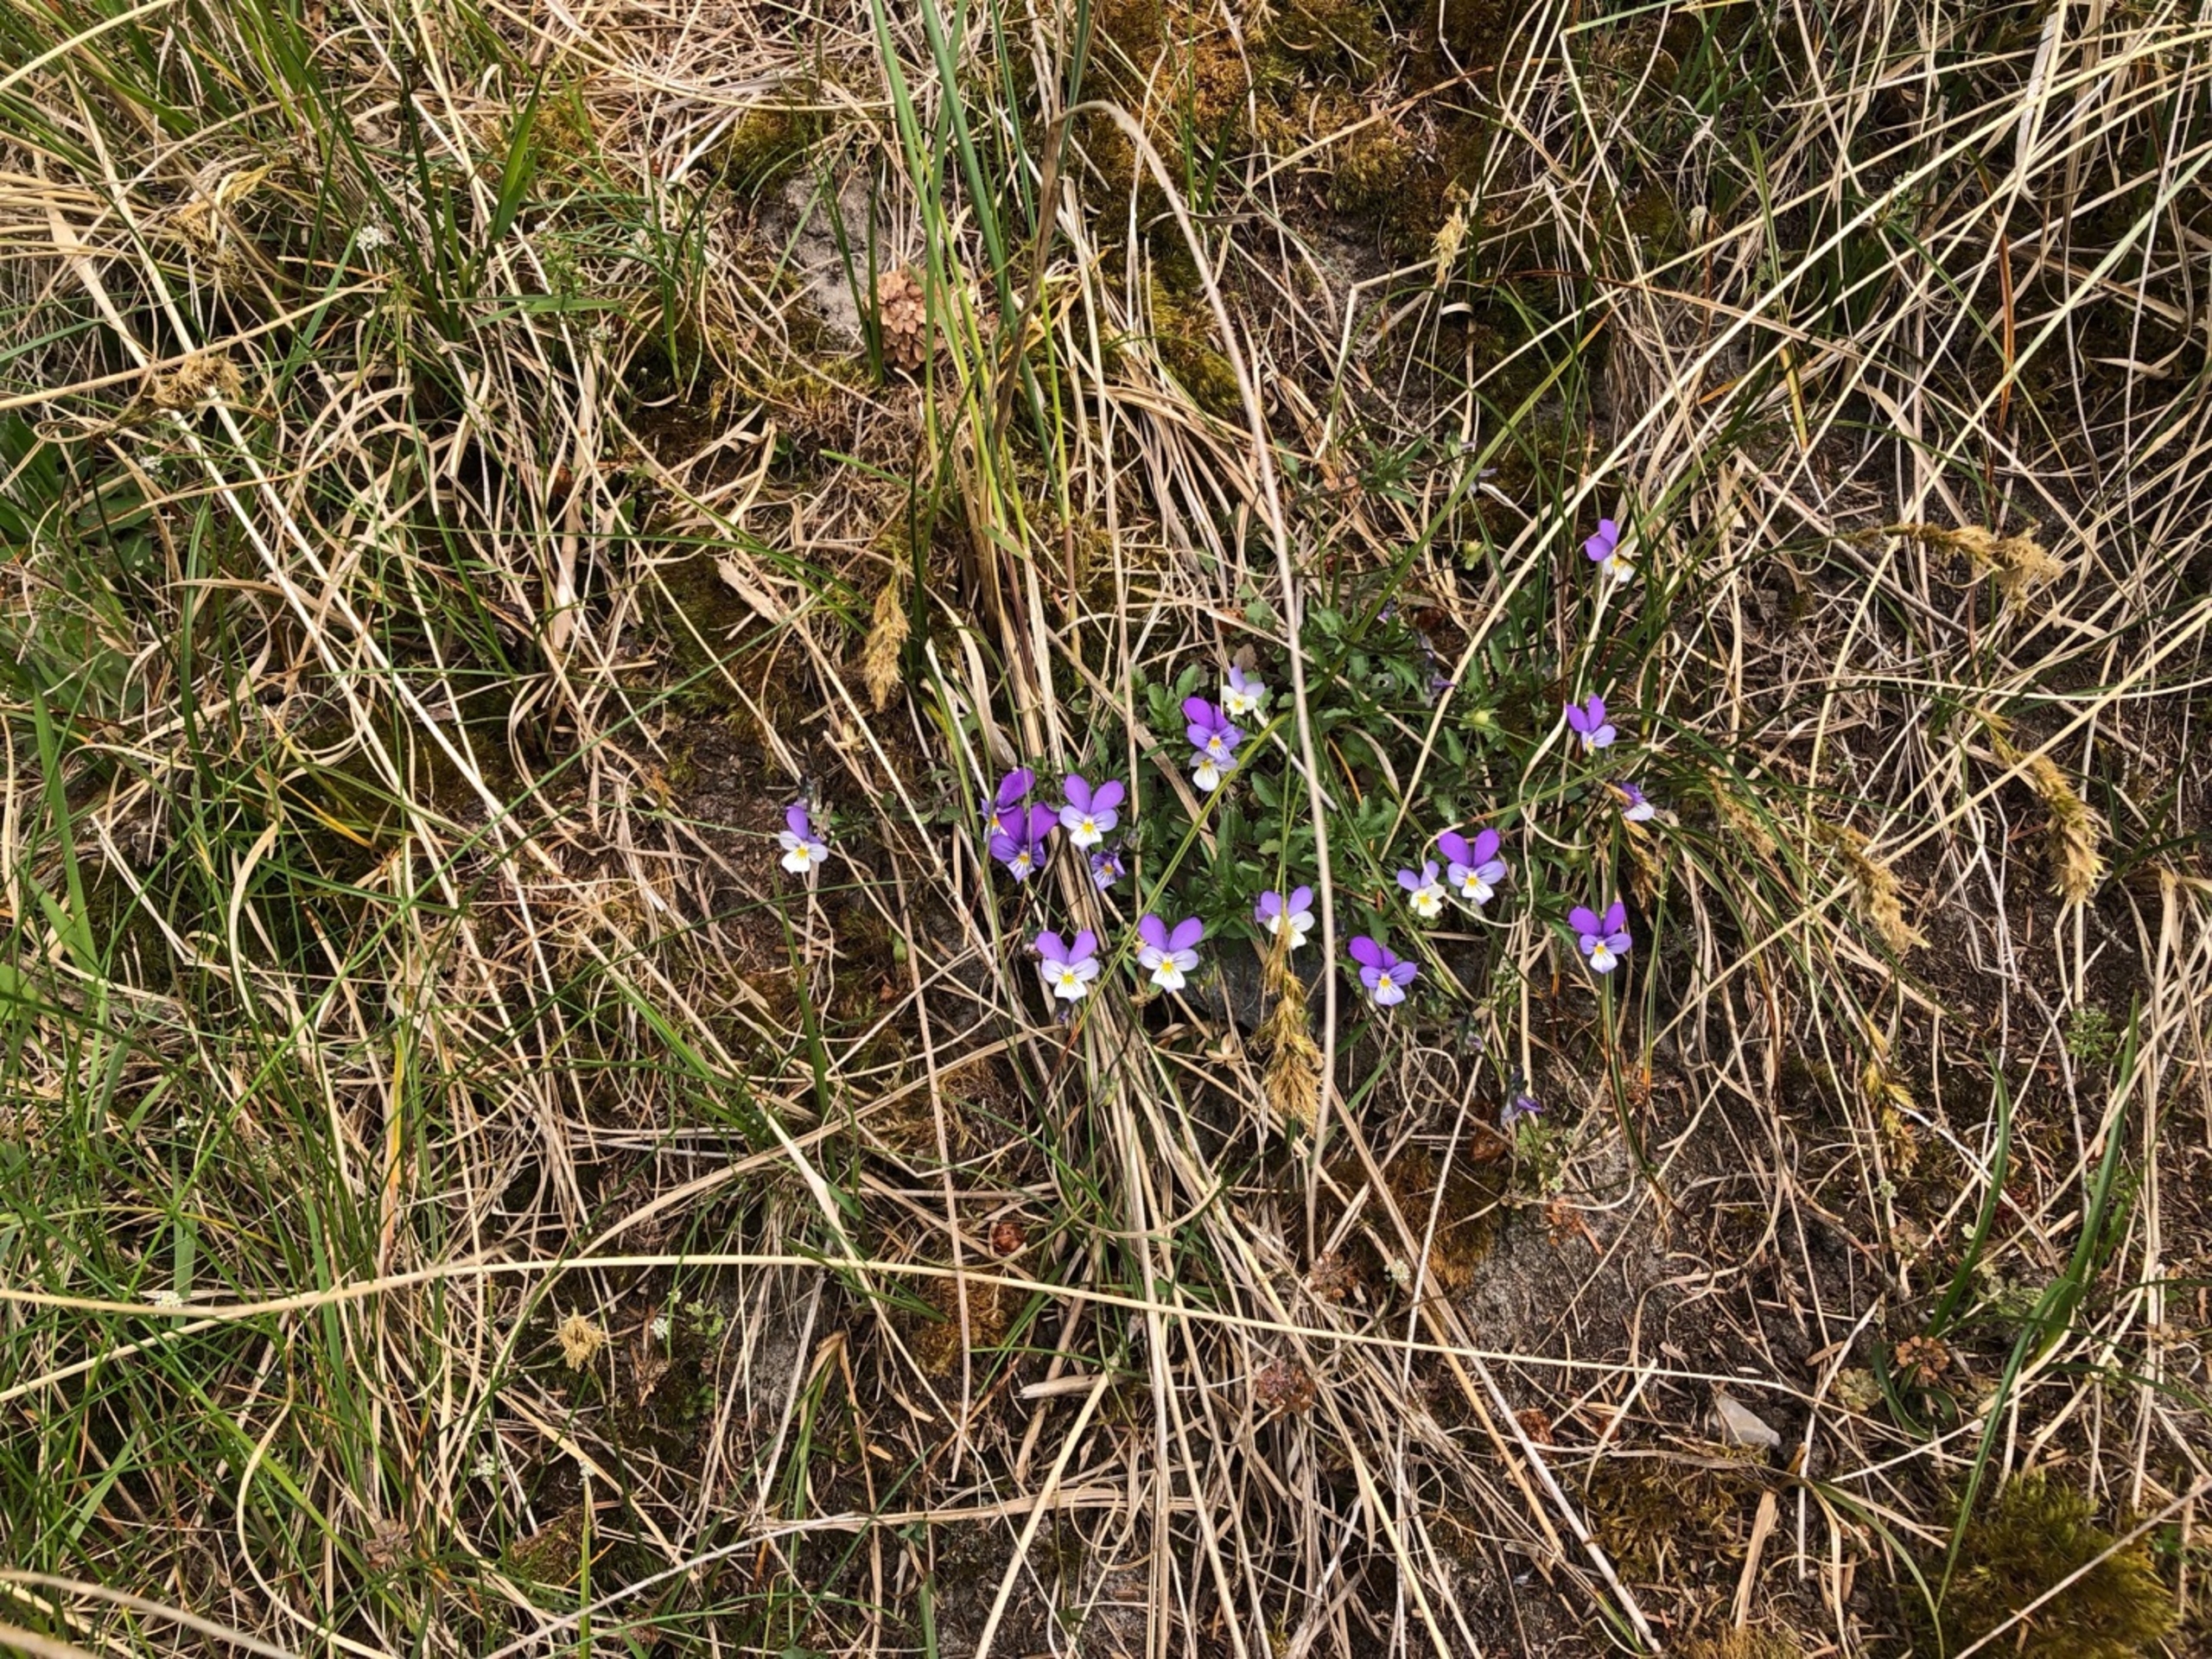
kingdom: Plantae
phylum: Tracheophyta
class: Magnoliopsida
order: Malpighiales
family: Violaceae
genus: Viola
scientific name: Viola tricolor
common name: Almindelig stedmoderblomst
